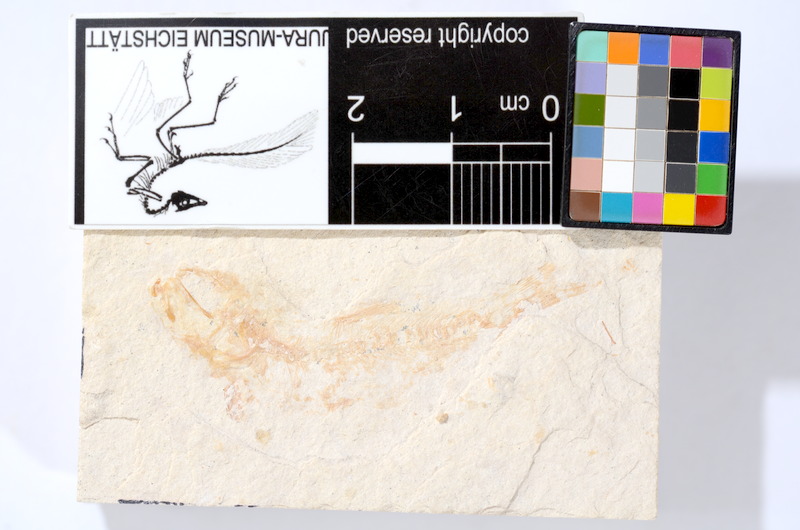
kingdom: Animalia
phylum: Chordata
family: Ascalaboidae
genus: Tharsis
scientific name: Tharsis dubius
